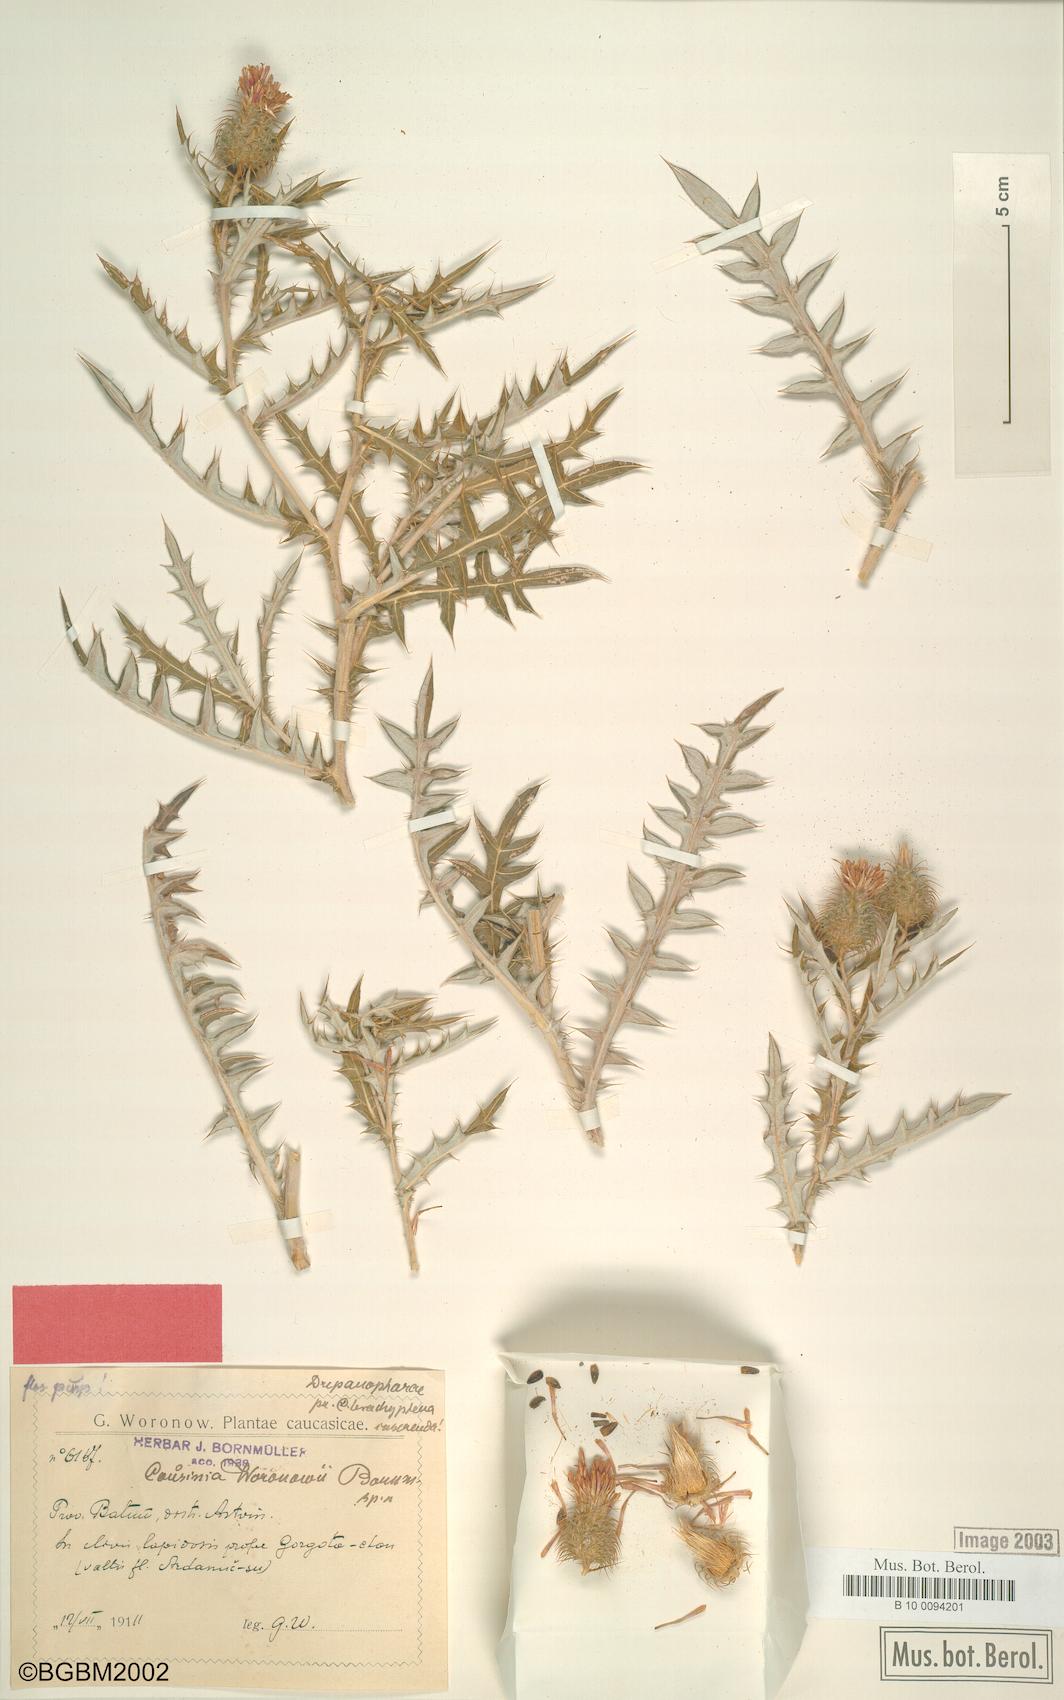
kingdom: Plantae
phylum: Tracheophyta
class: Magnoliopsida
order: Asterales
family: Asteraceae
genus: Cousinia
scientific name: Cousinia woronowii
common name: Voronov's cousinia
